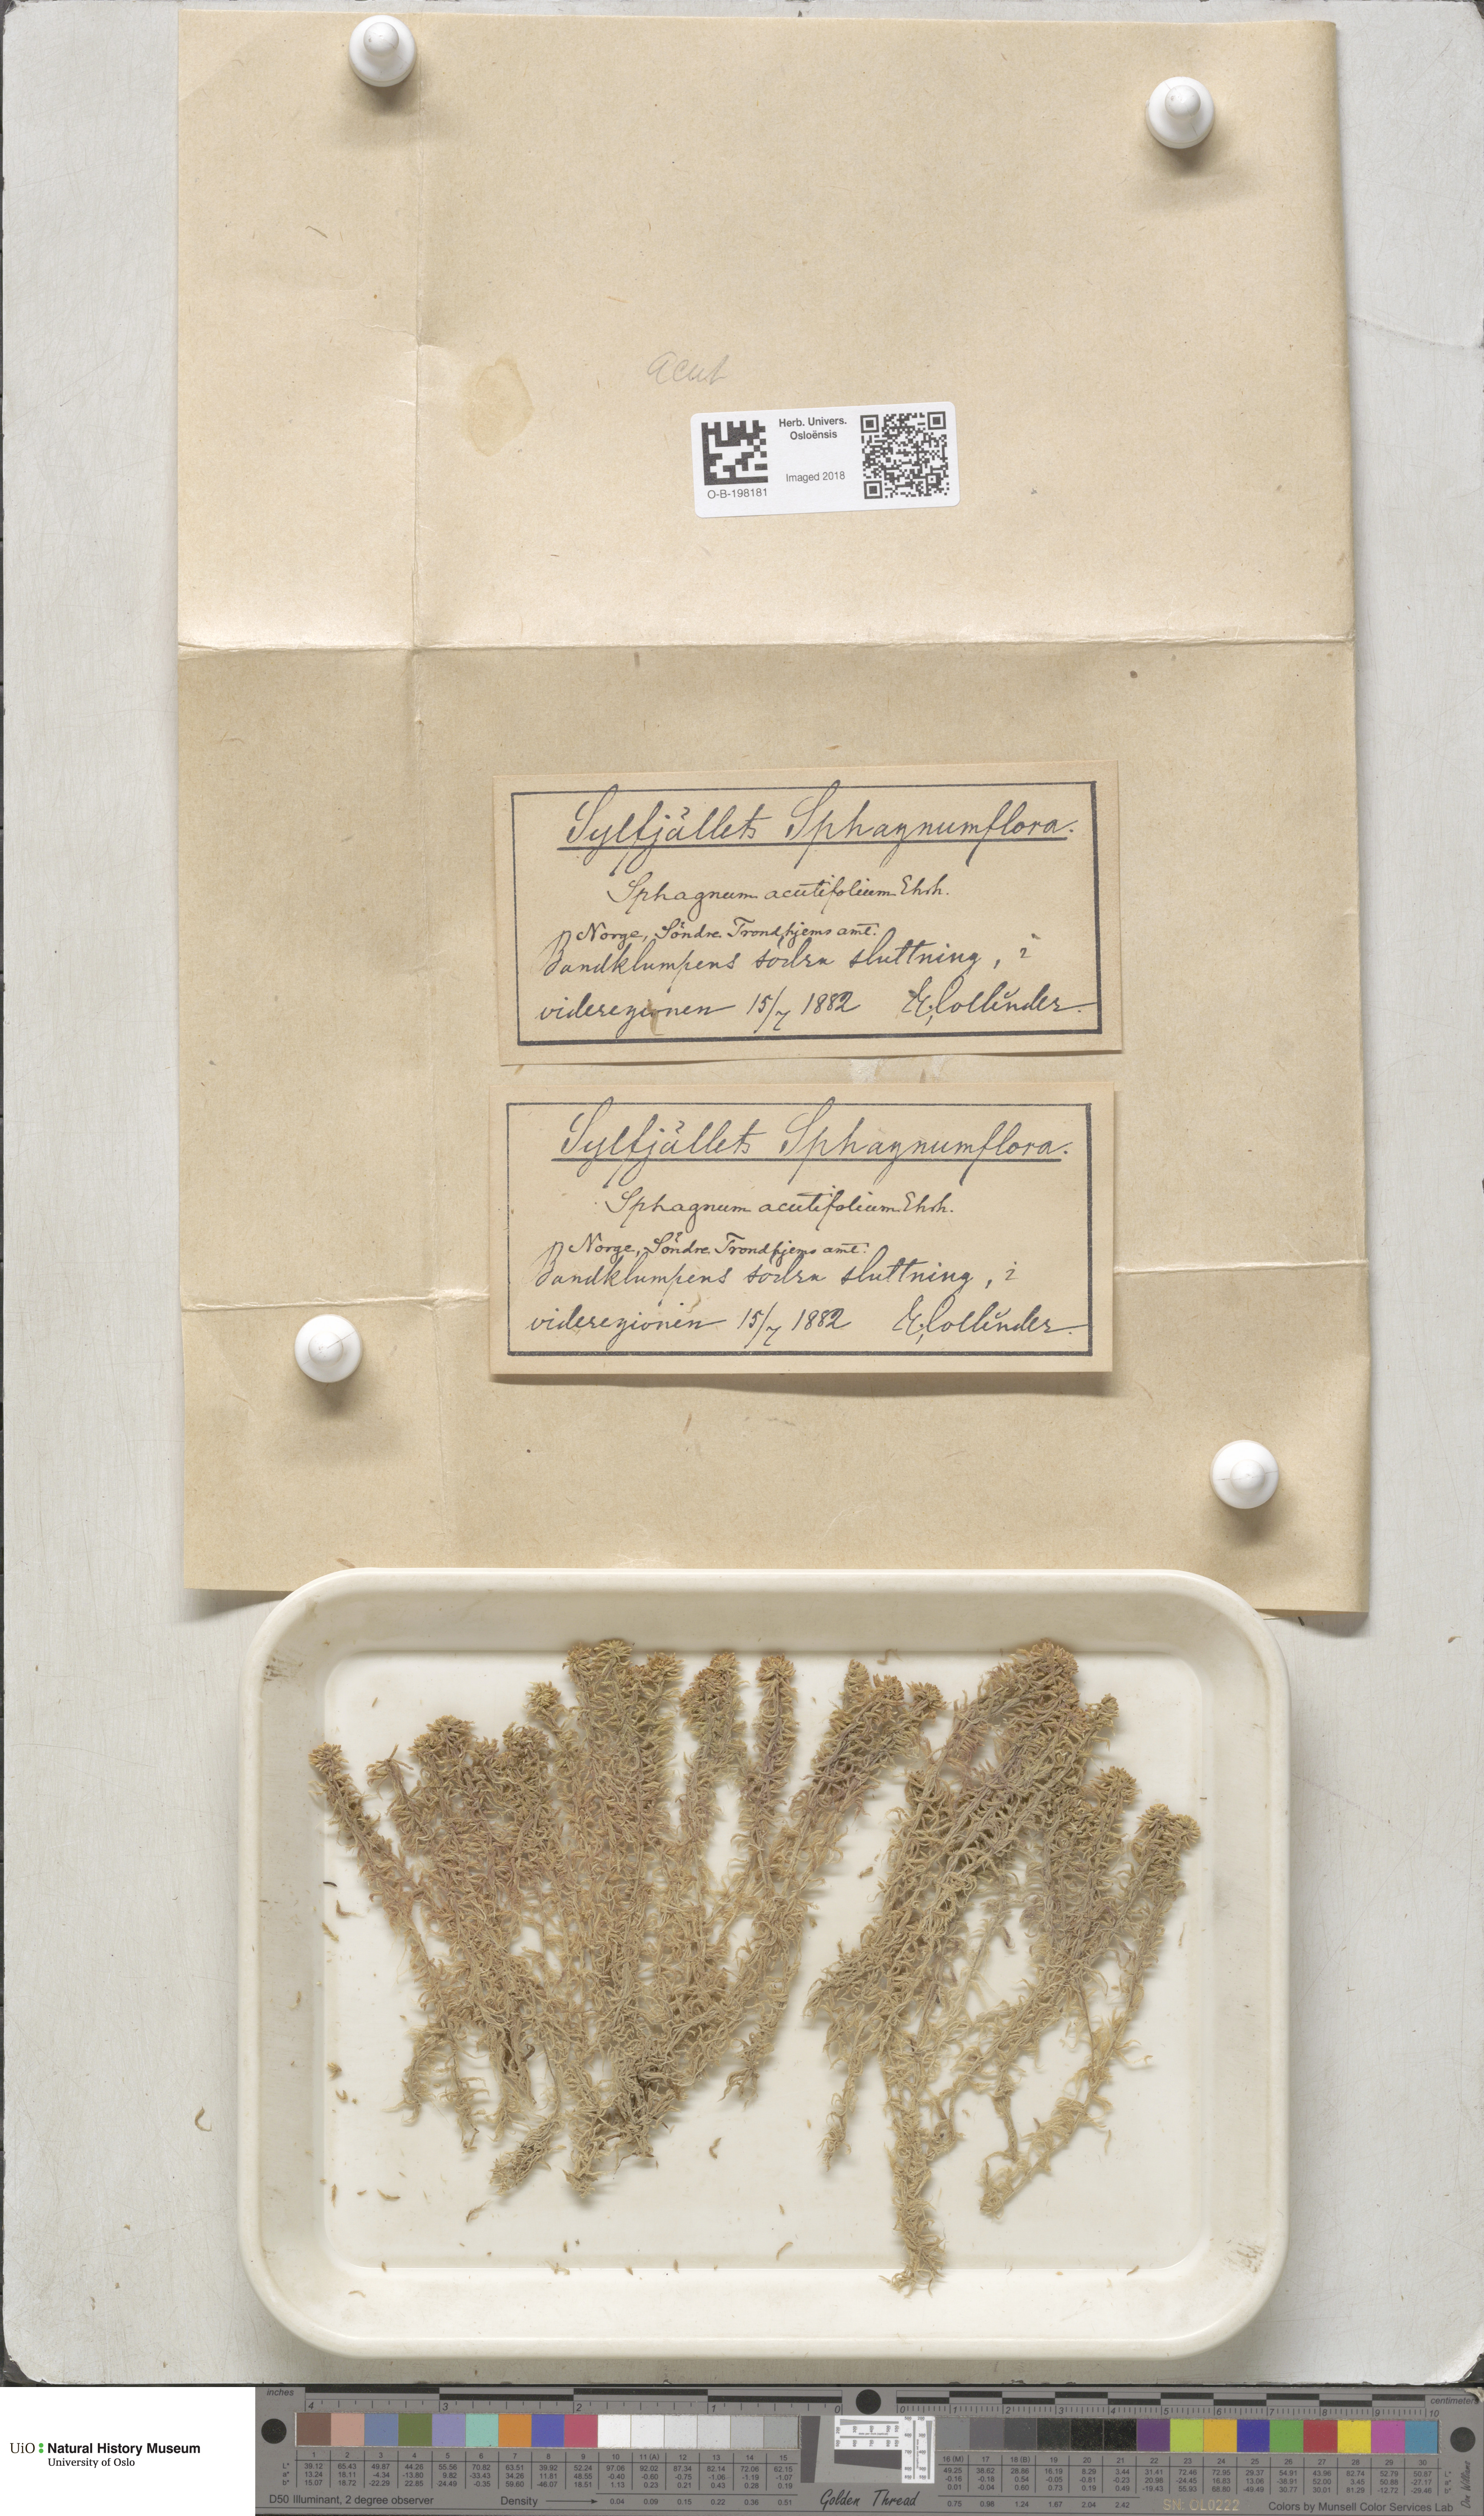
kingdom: Plantae
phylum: Bryophyta
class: Sphagnopsida
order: Sphagnales
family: Sphagnaceae
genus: Sphagnum
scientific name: Sphagnum capillifolium
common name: Small red peat moss
